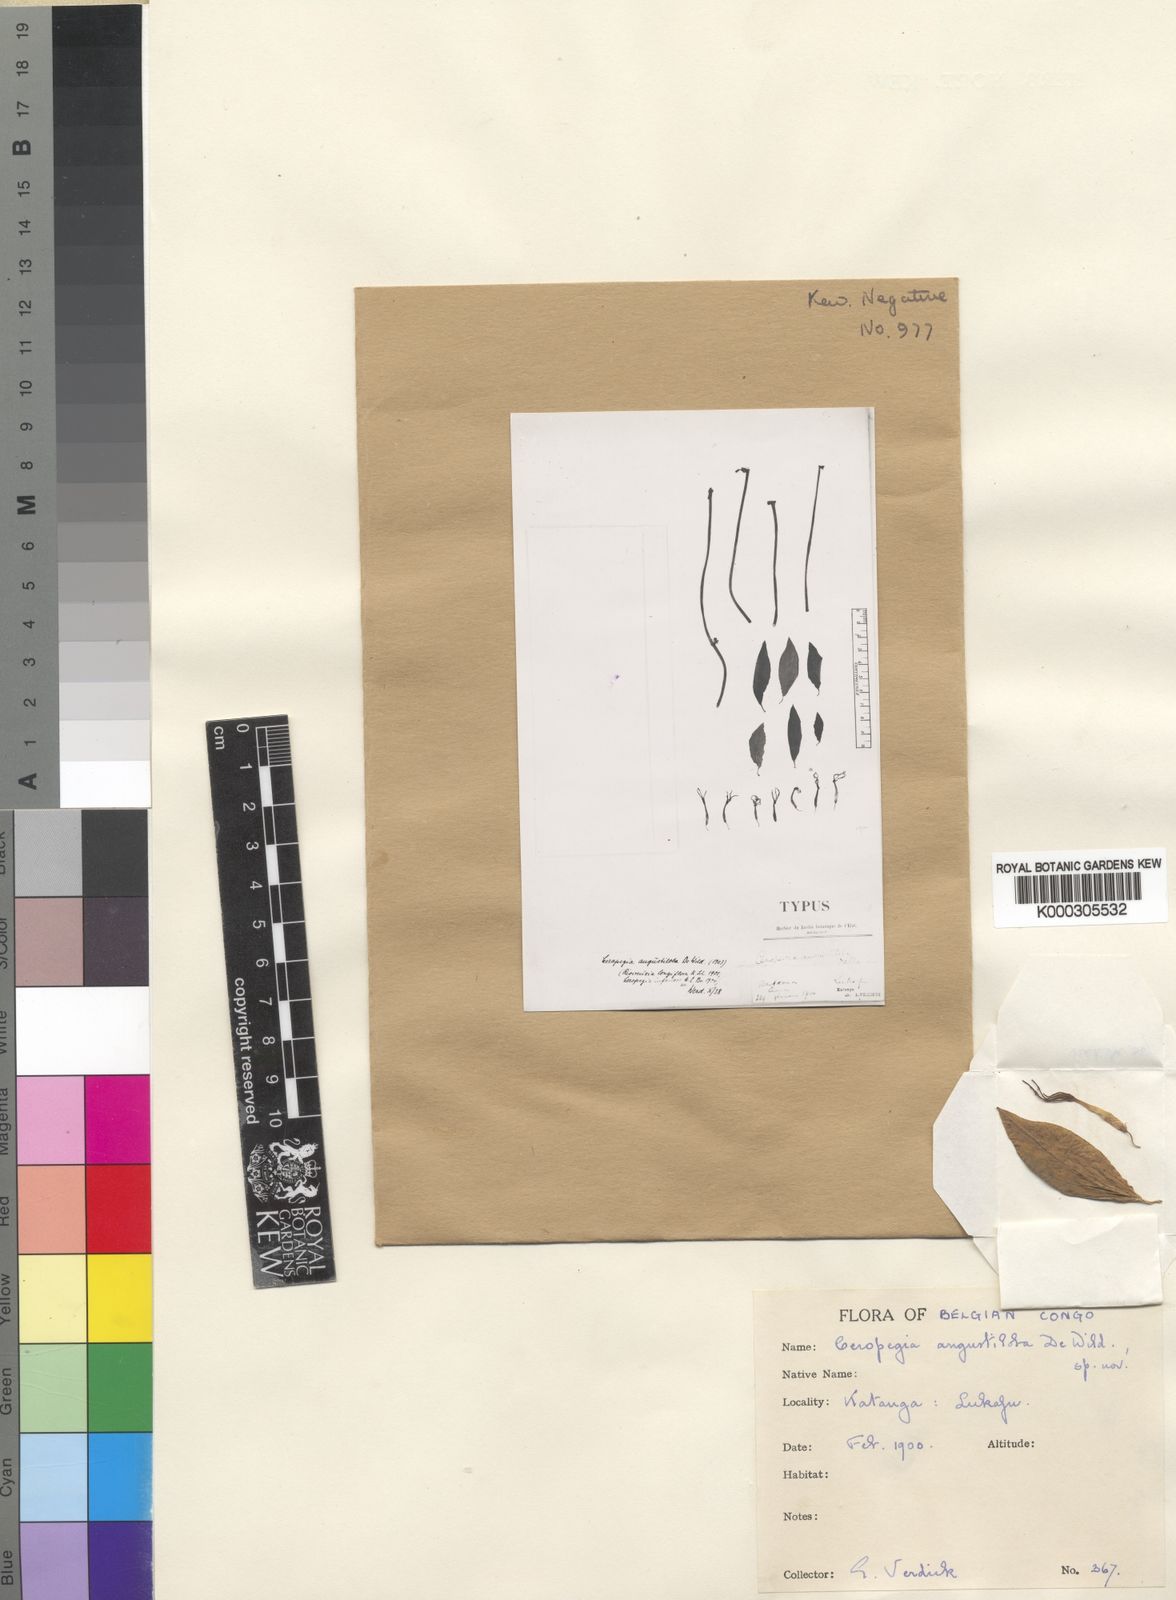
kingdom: Plantae
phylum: Tracheophyta
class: Magnoliopsida
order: Gentianales
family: Apocynaceae
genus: Ceropegia
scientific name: Ceropegia stenantha
